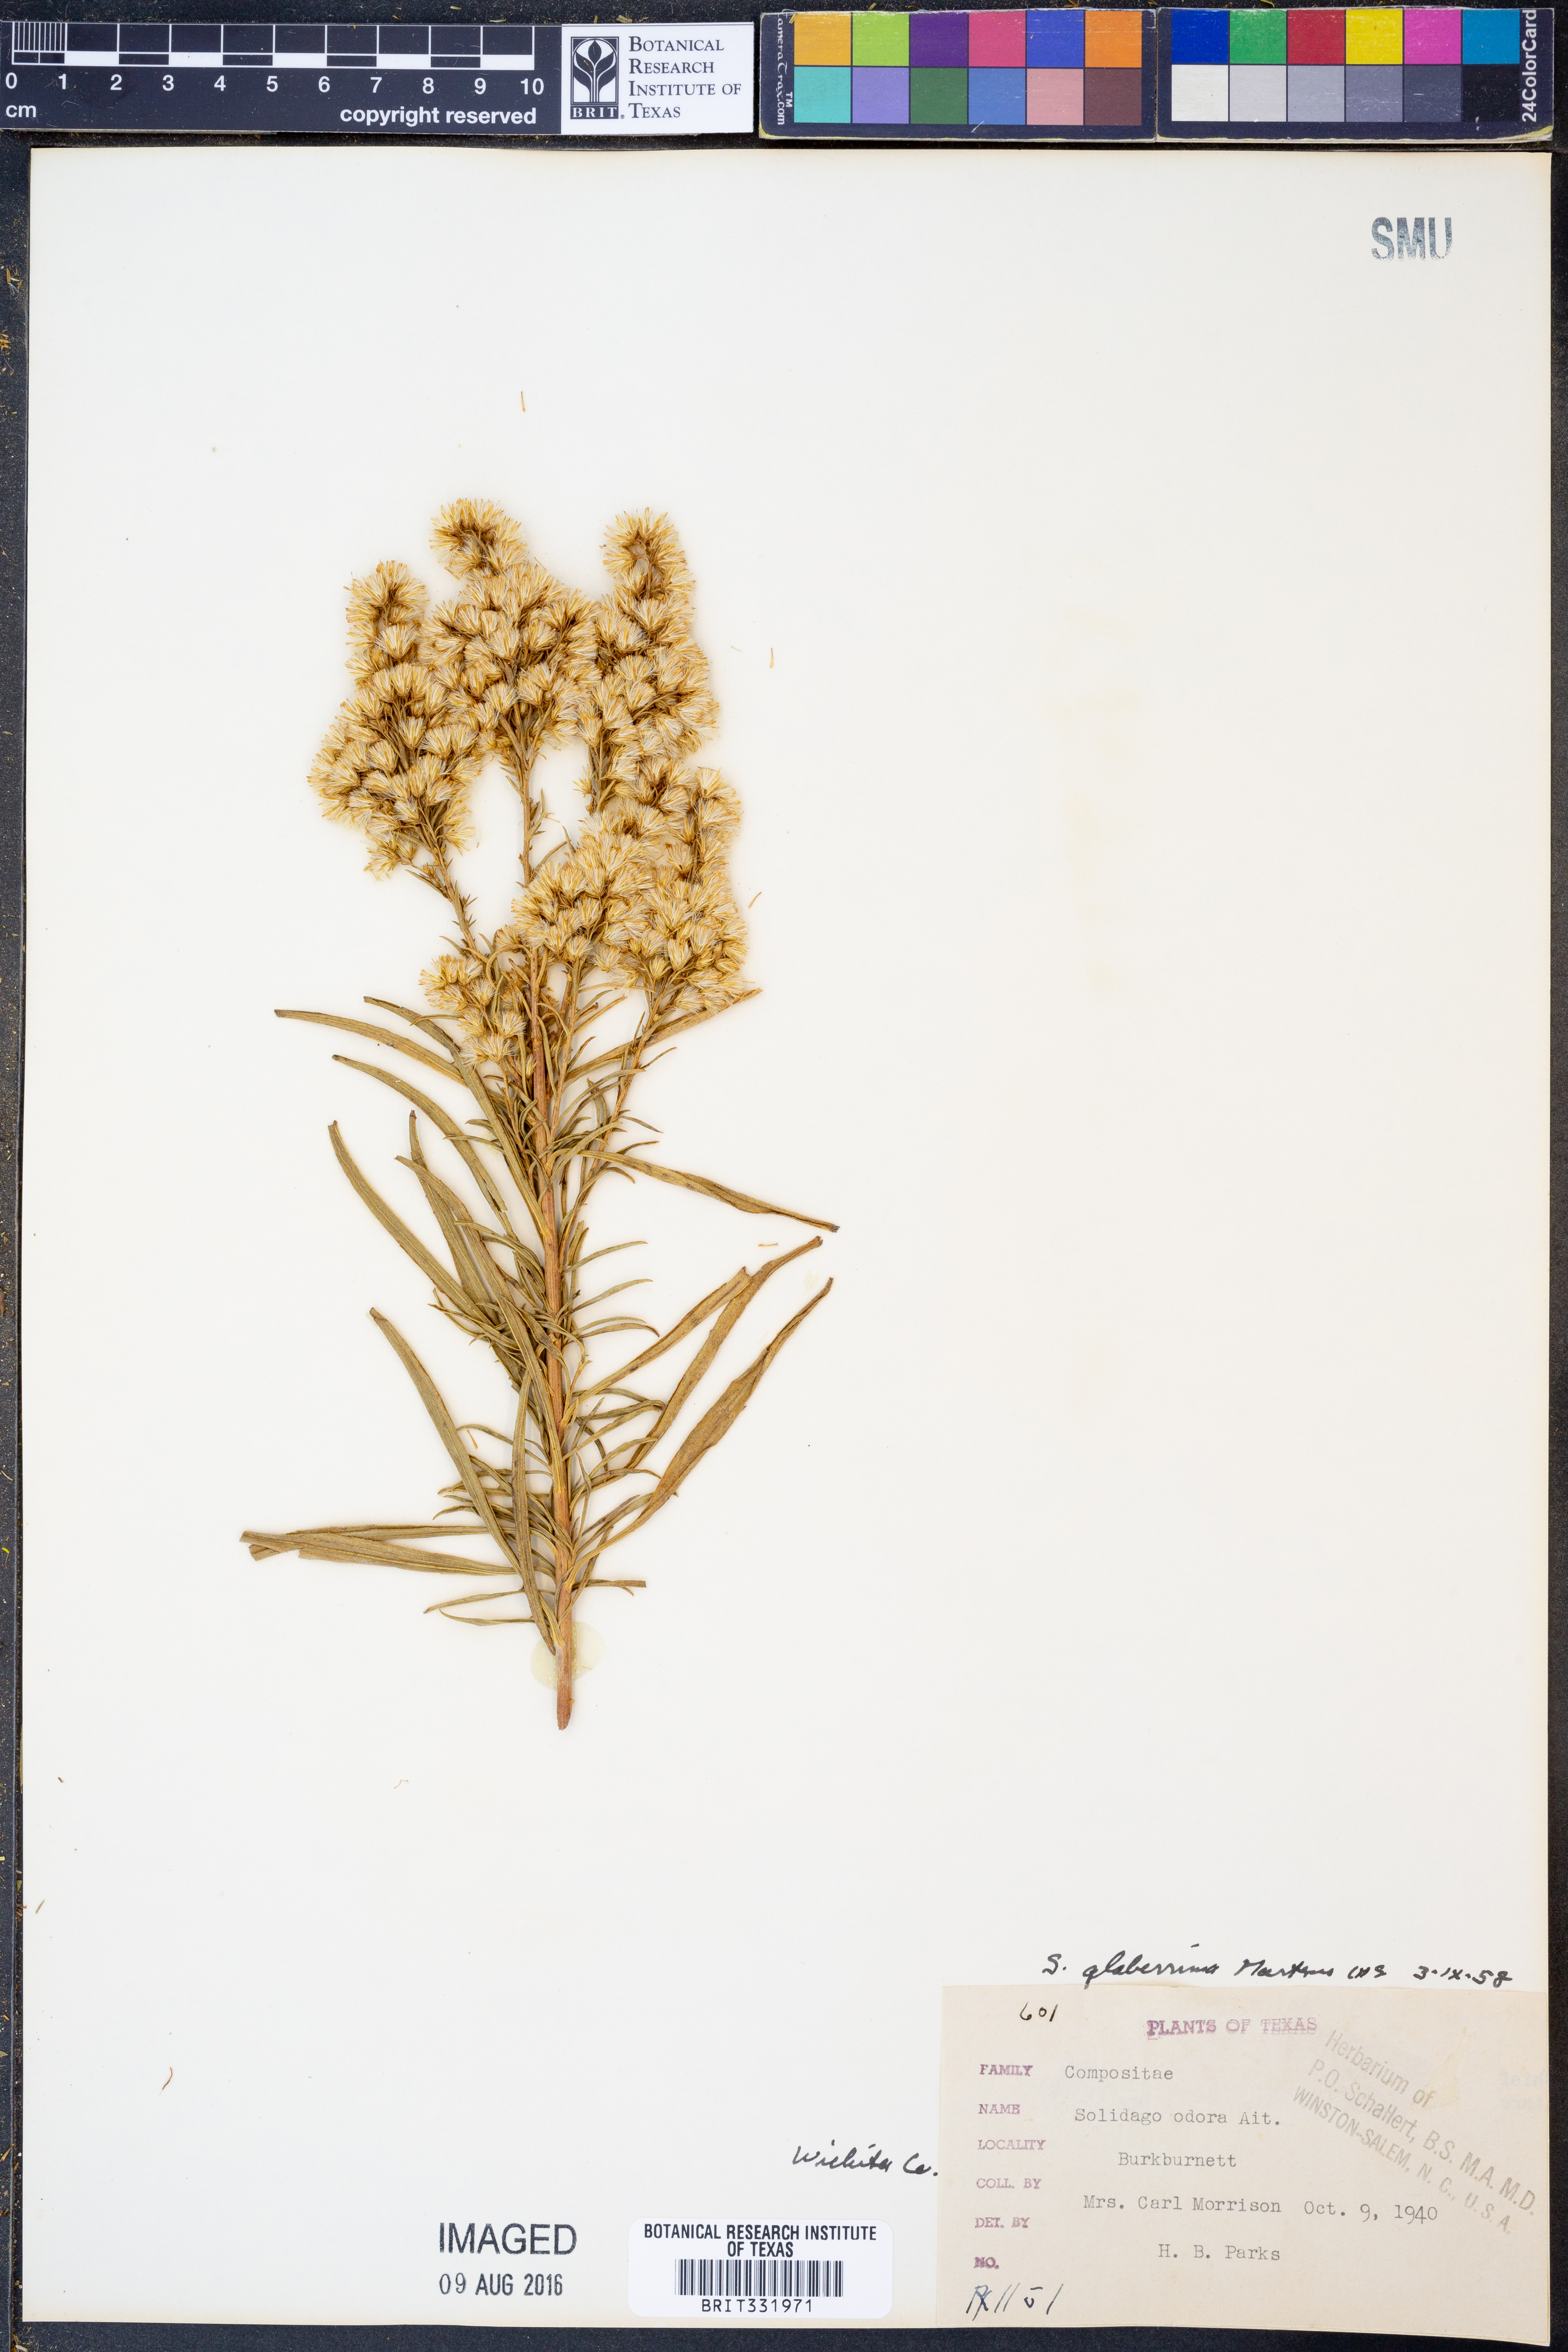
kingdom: Plantae
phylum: Tracheophyta
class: Magnoliopsida
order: Asterales
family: Asteraceae
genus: Solidago
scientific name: Solidago missouriensis
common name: Prairie goldenrod
